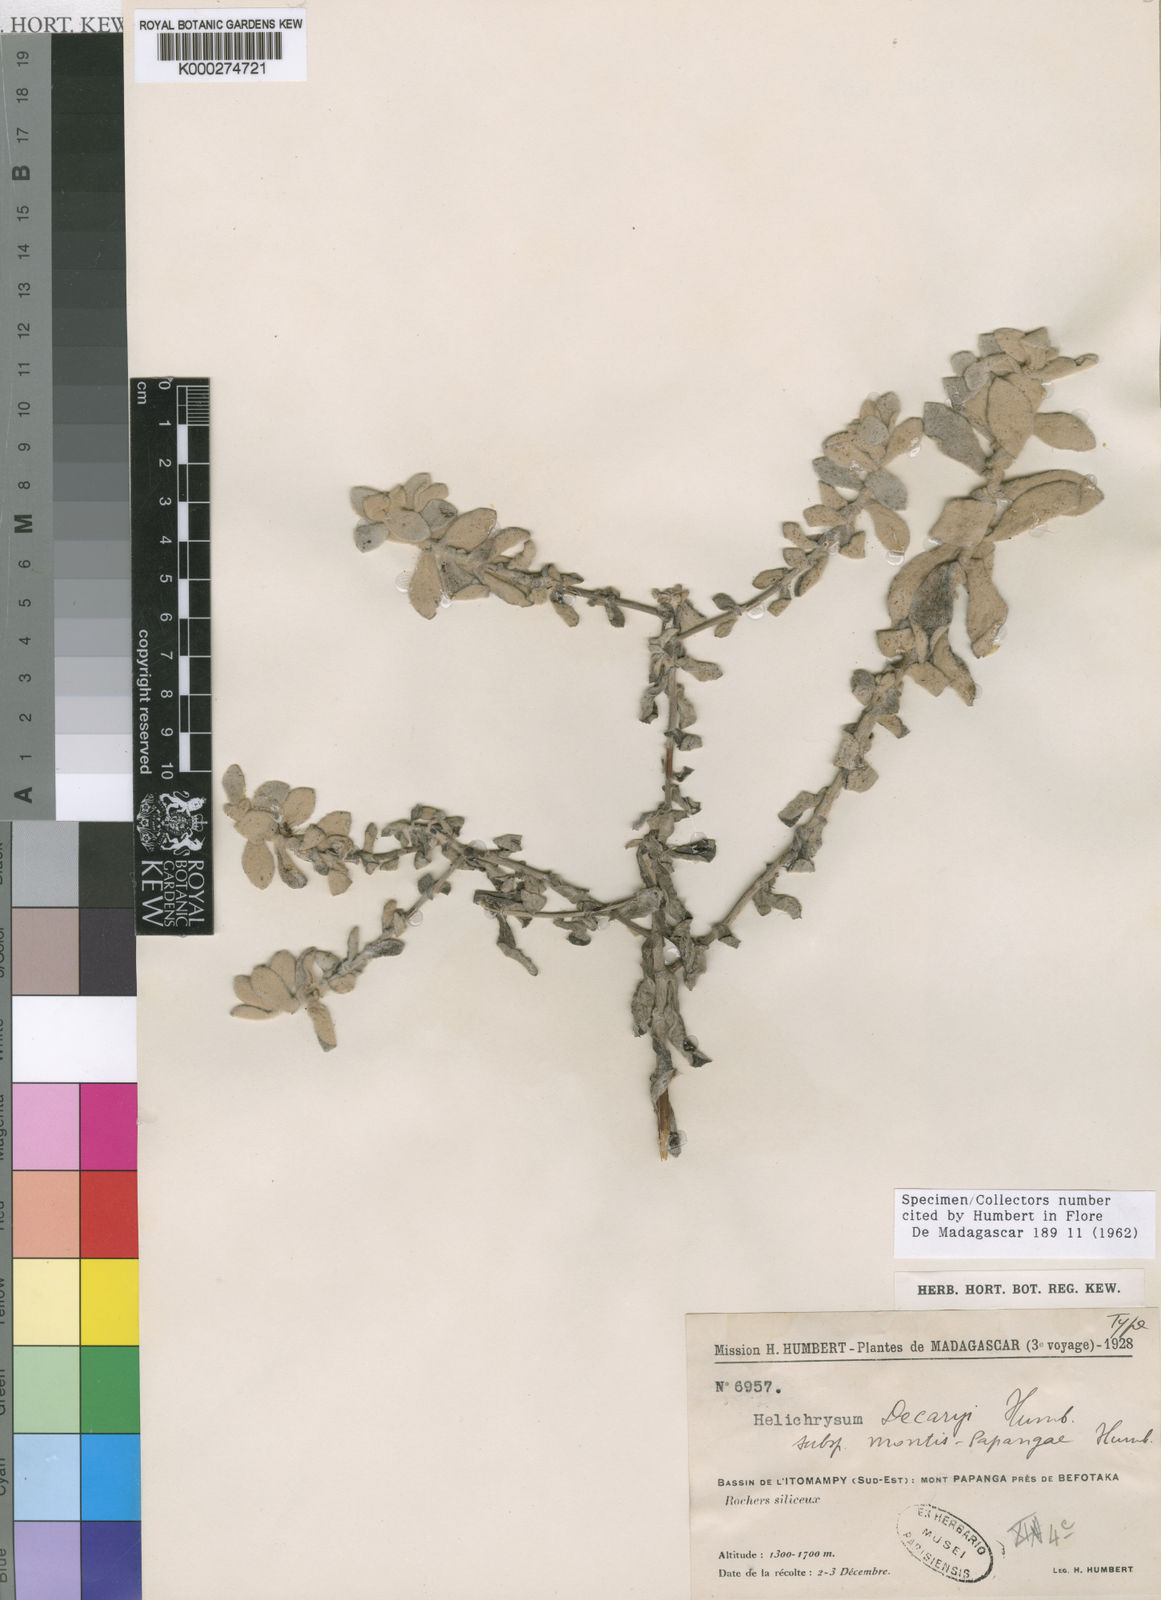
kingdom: Plantae
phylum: Tracheophyta
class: Magnoliopsida
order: Asterales
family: Asteraceae
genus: Helichrysum
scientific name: Helichrysum decaryi
